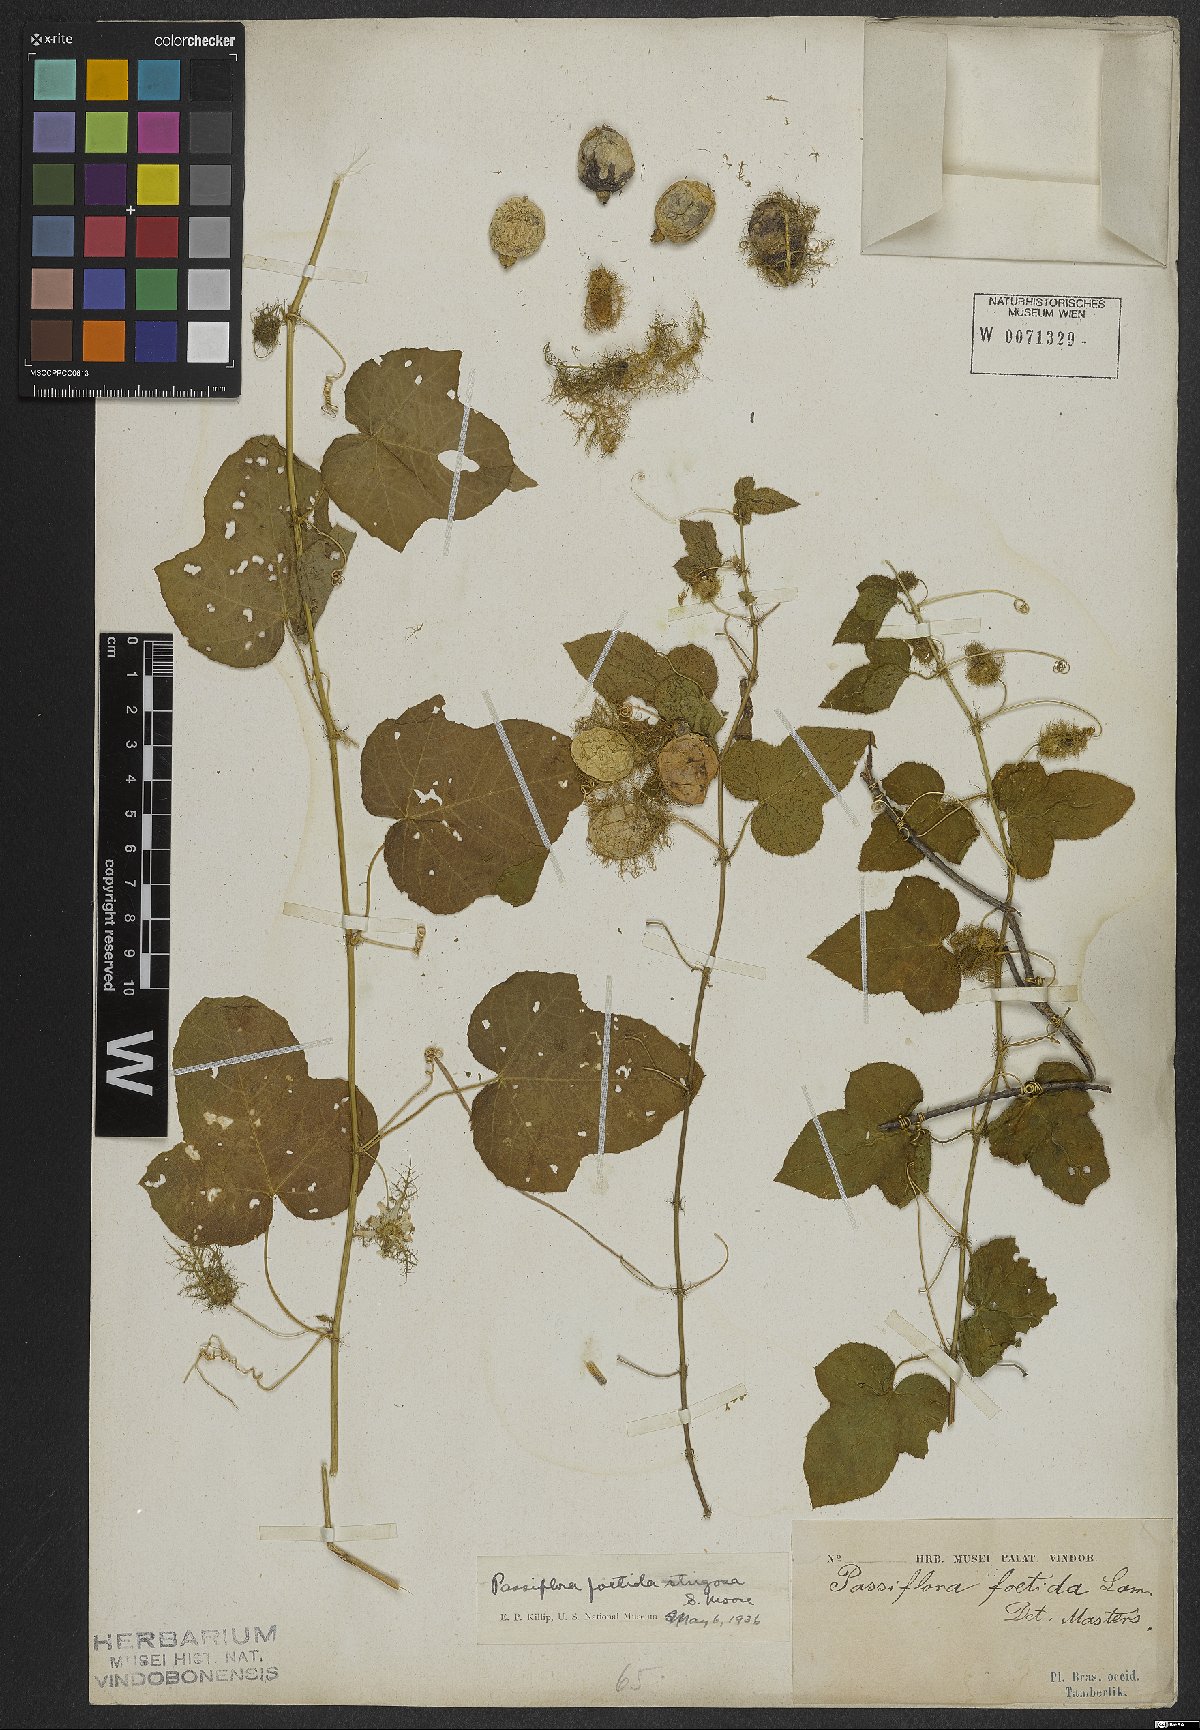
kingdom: Plantae
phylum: Tracheophyta
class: Magnoliopsida
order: Malpighiales
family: Passifloraceae
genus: Passiflora
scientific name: Passiflora foetida
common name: Fetid passionflower
